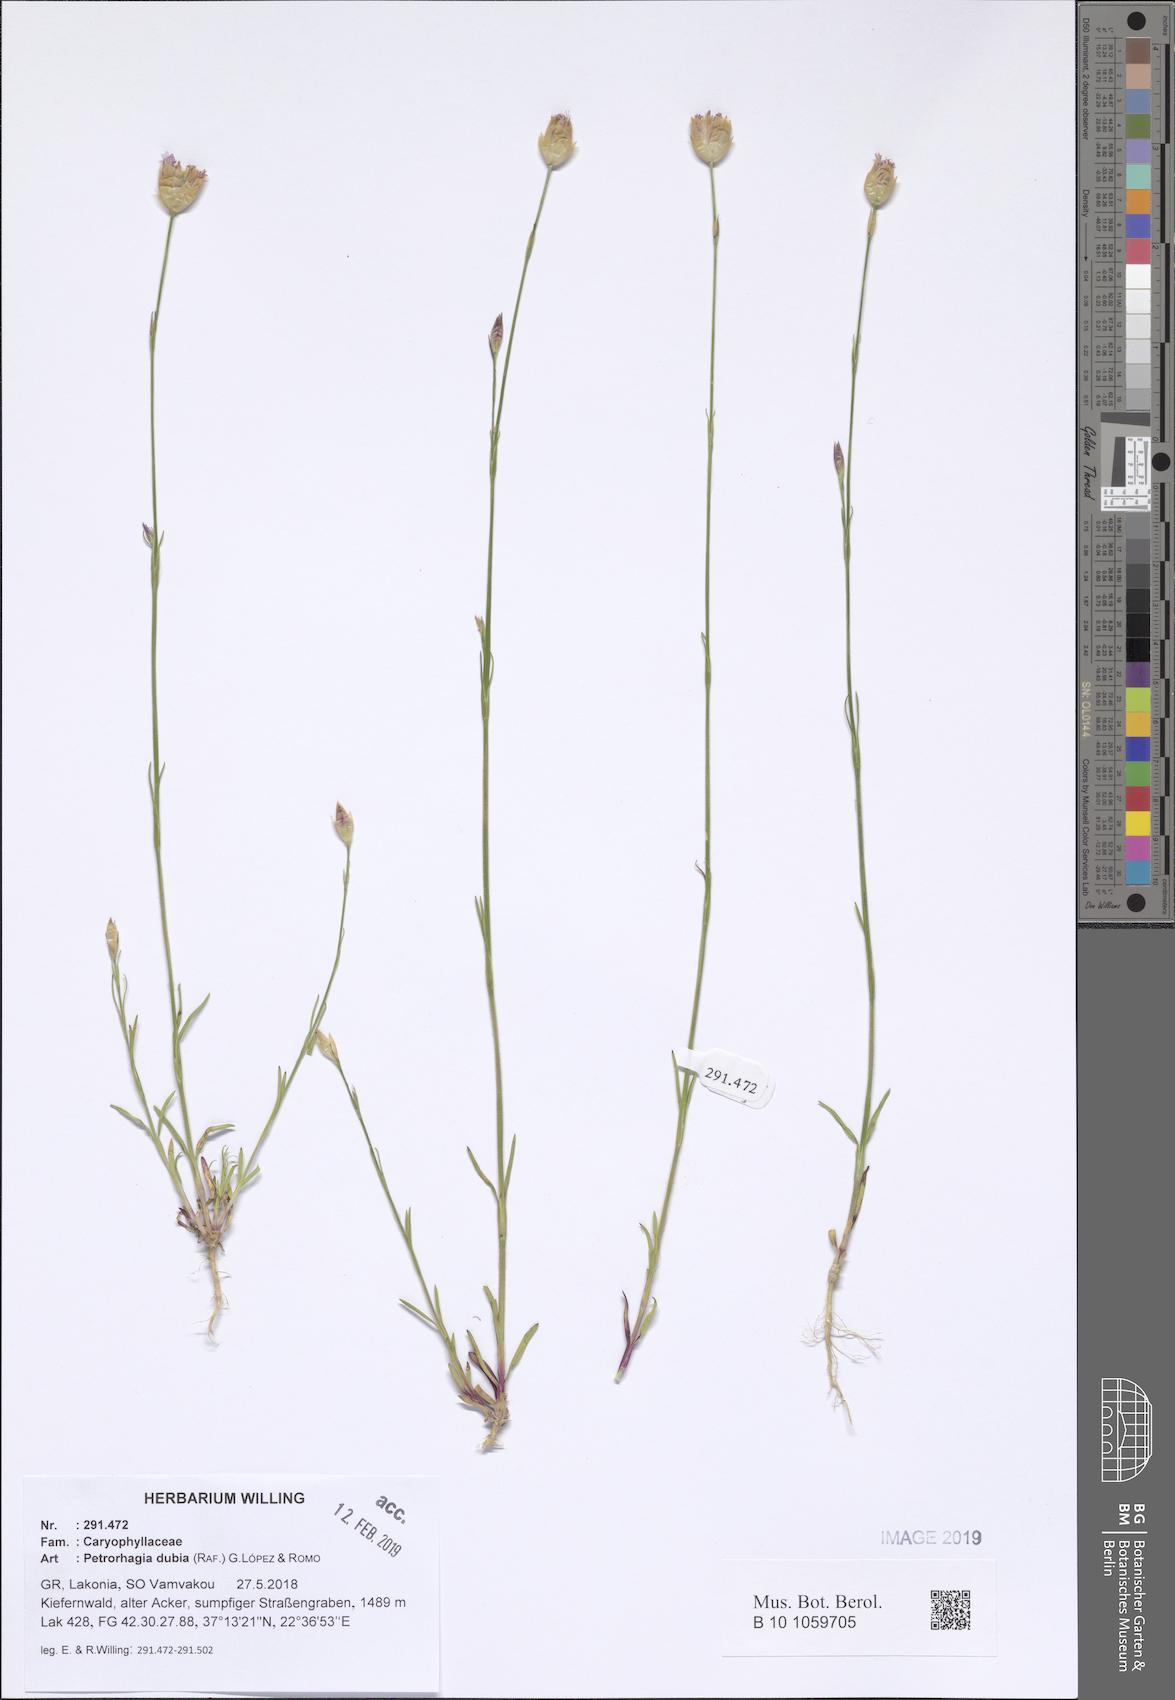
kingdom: Plantae
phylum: Tracheophyta
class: Magnoliopsida
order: Caryophyllales
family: Caryophyllaceae
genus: Petrorhagia
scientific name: Petrorhagia dubia
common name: Hairypink
